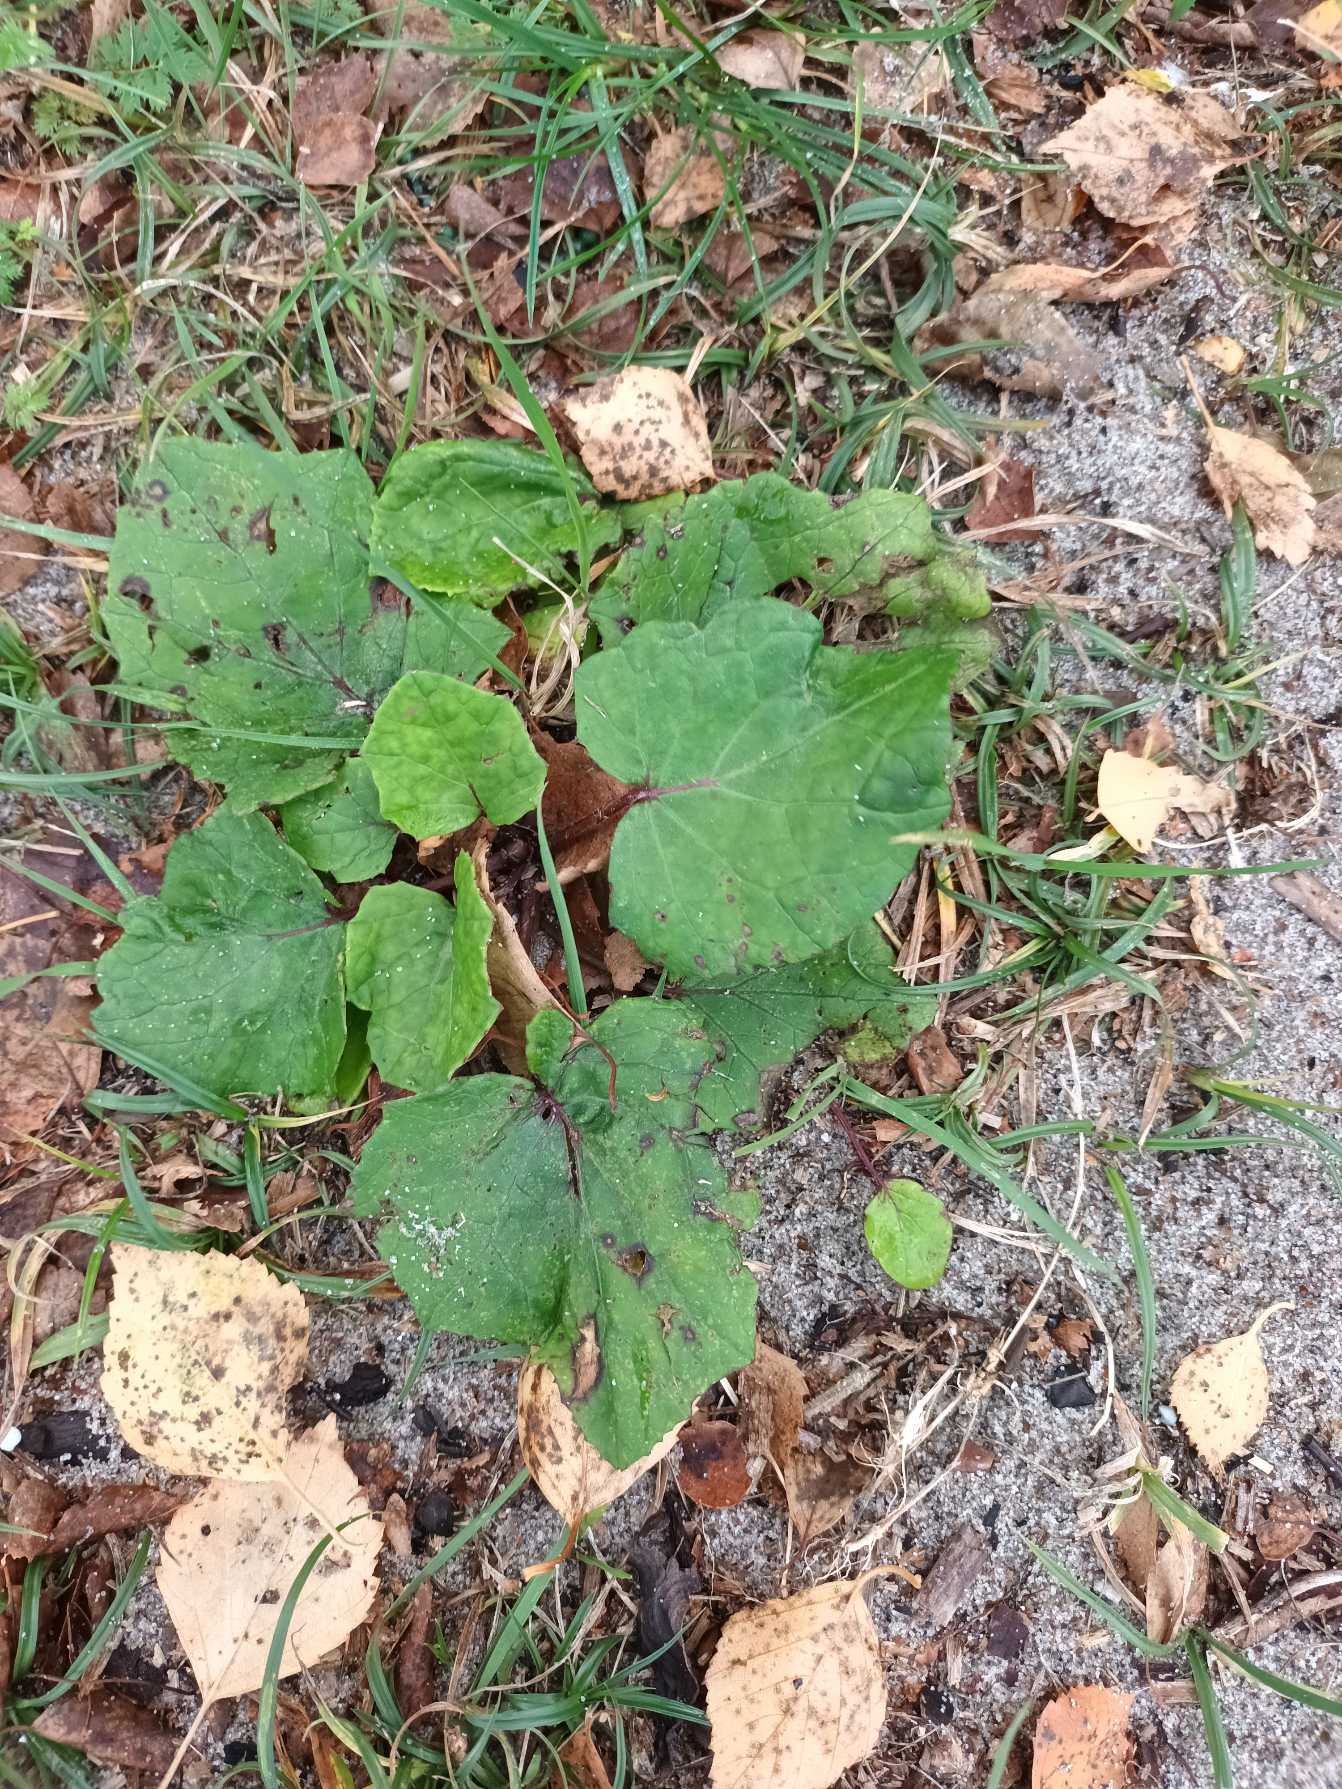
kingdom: Plantae
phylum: Tracheophyta
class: Magnoliopsida
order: Asterales
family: Asteraceae
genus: Tussilago
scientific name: Tussilago farfara
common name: Følfod
